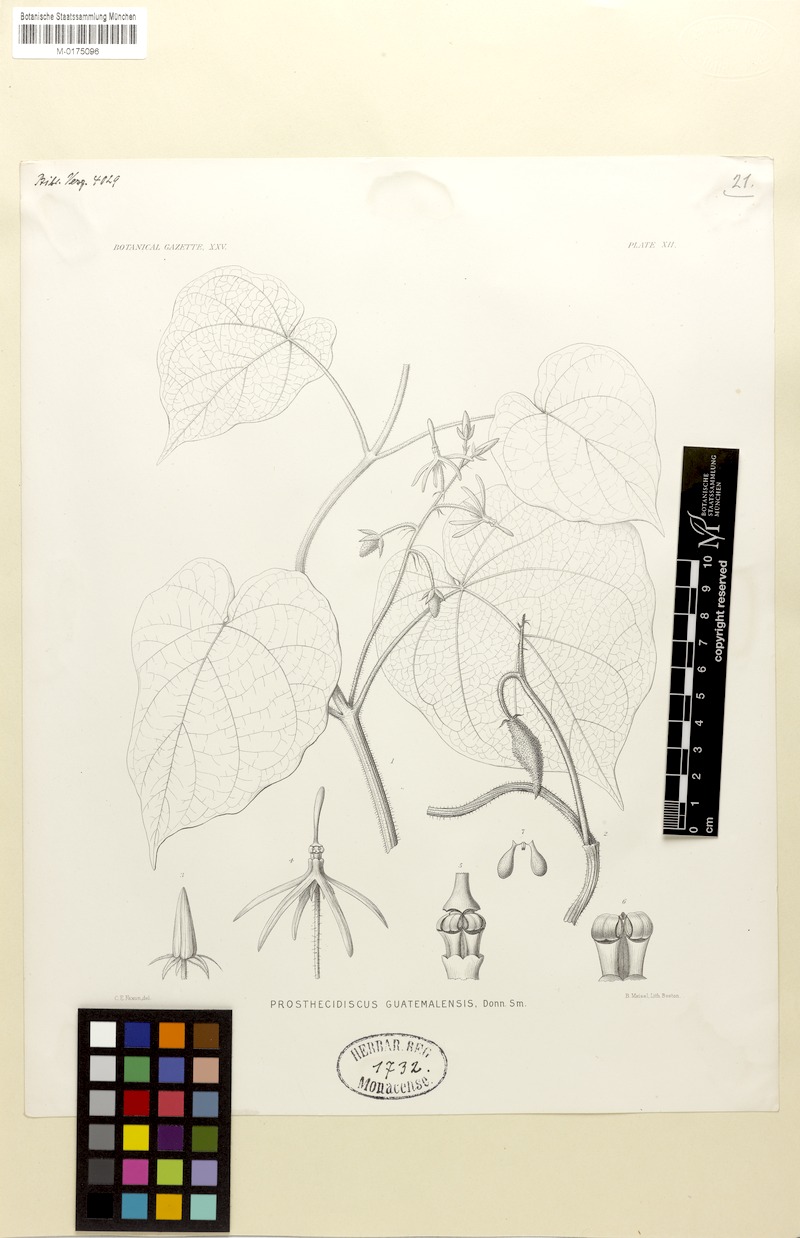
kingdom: Plantae
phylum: Tracheophyta
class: Magnoliopsida
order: Gentianales
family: Apocynaceae
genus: Matelea
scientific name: Matelea prosthecidiscus
